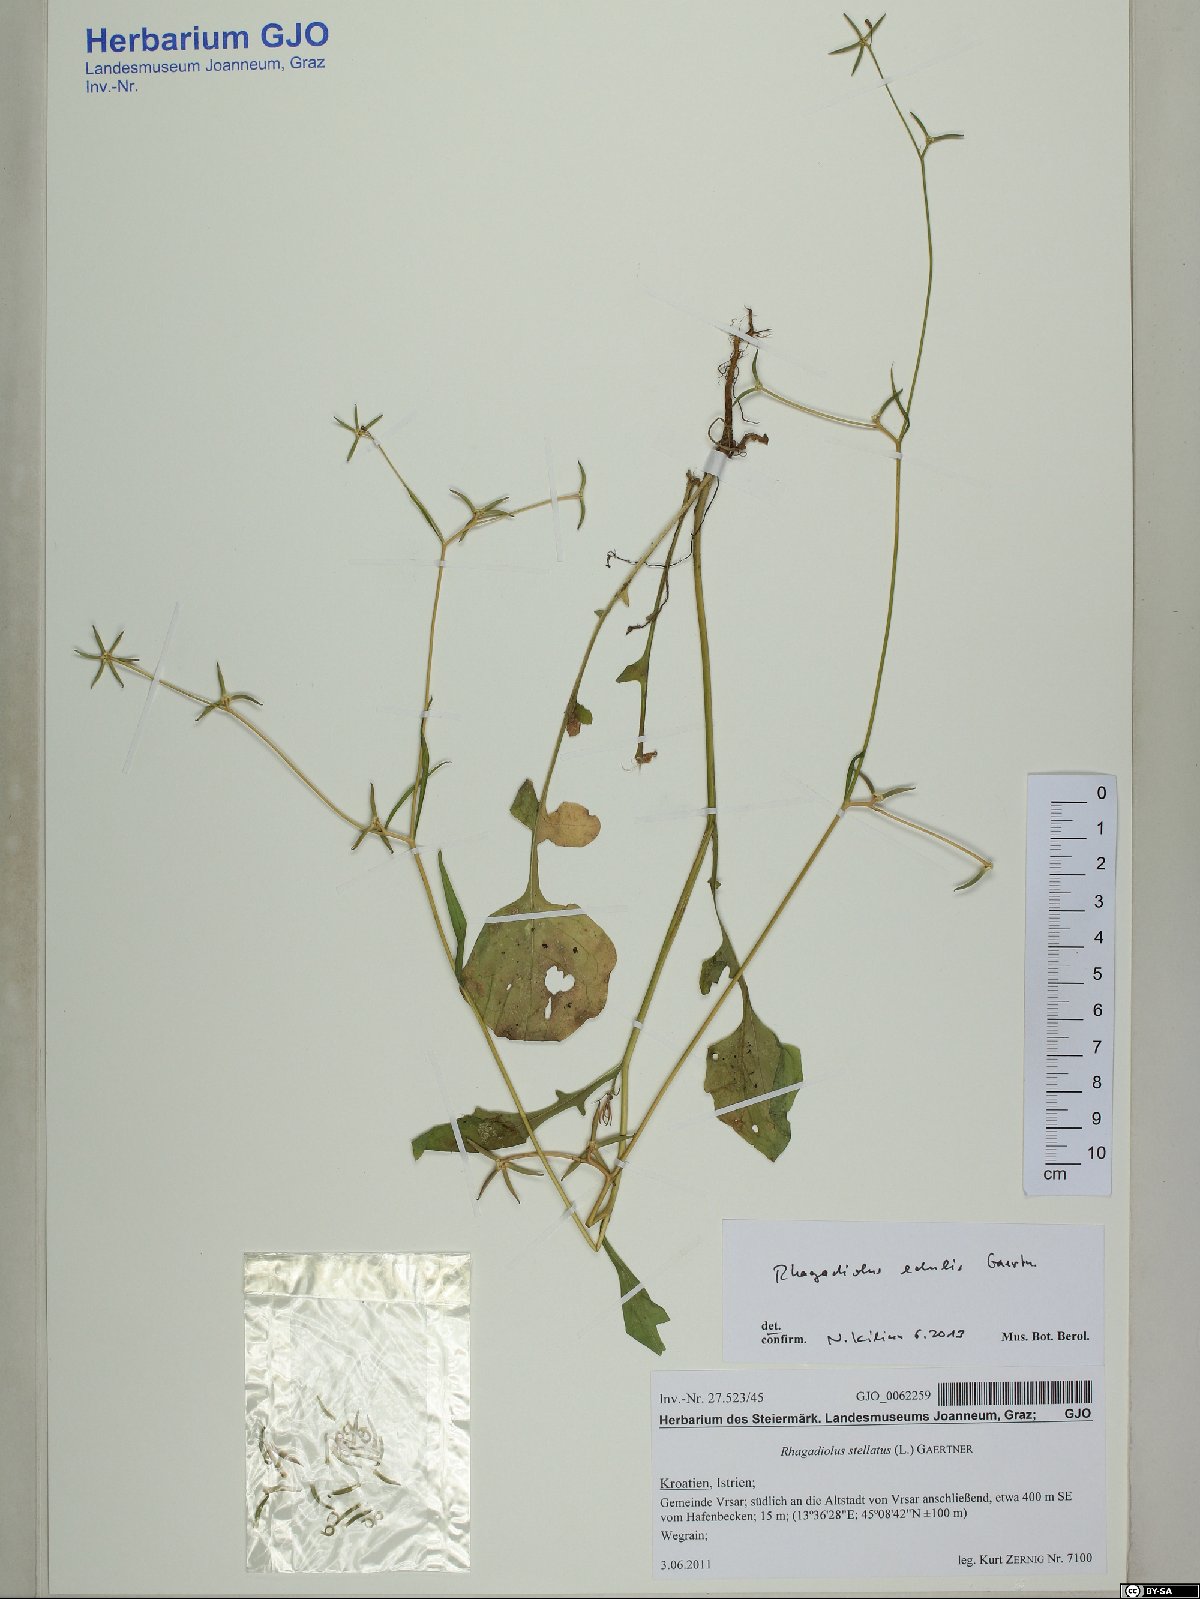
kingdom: Plantae
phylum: Tracheophyta
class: Magnoliopsida
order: Asterales
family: Asteraceae
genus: Rhagadiolus
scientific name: Rhagadiolus edulis
